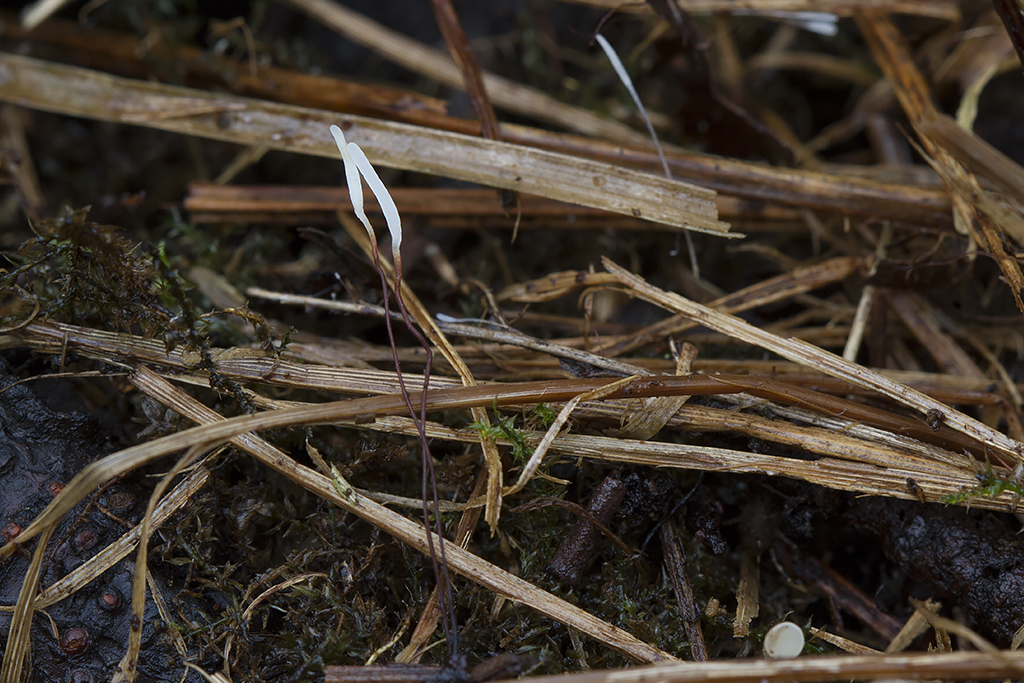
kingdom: Fungi
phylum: Basidiomycota
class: Agaricomycetes
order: Agaricales
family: Typhulaceae
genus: Typhula
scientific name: Typhula erythropus
